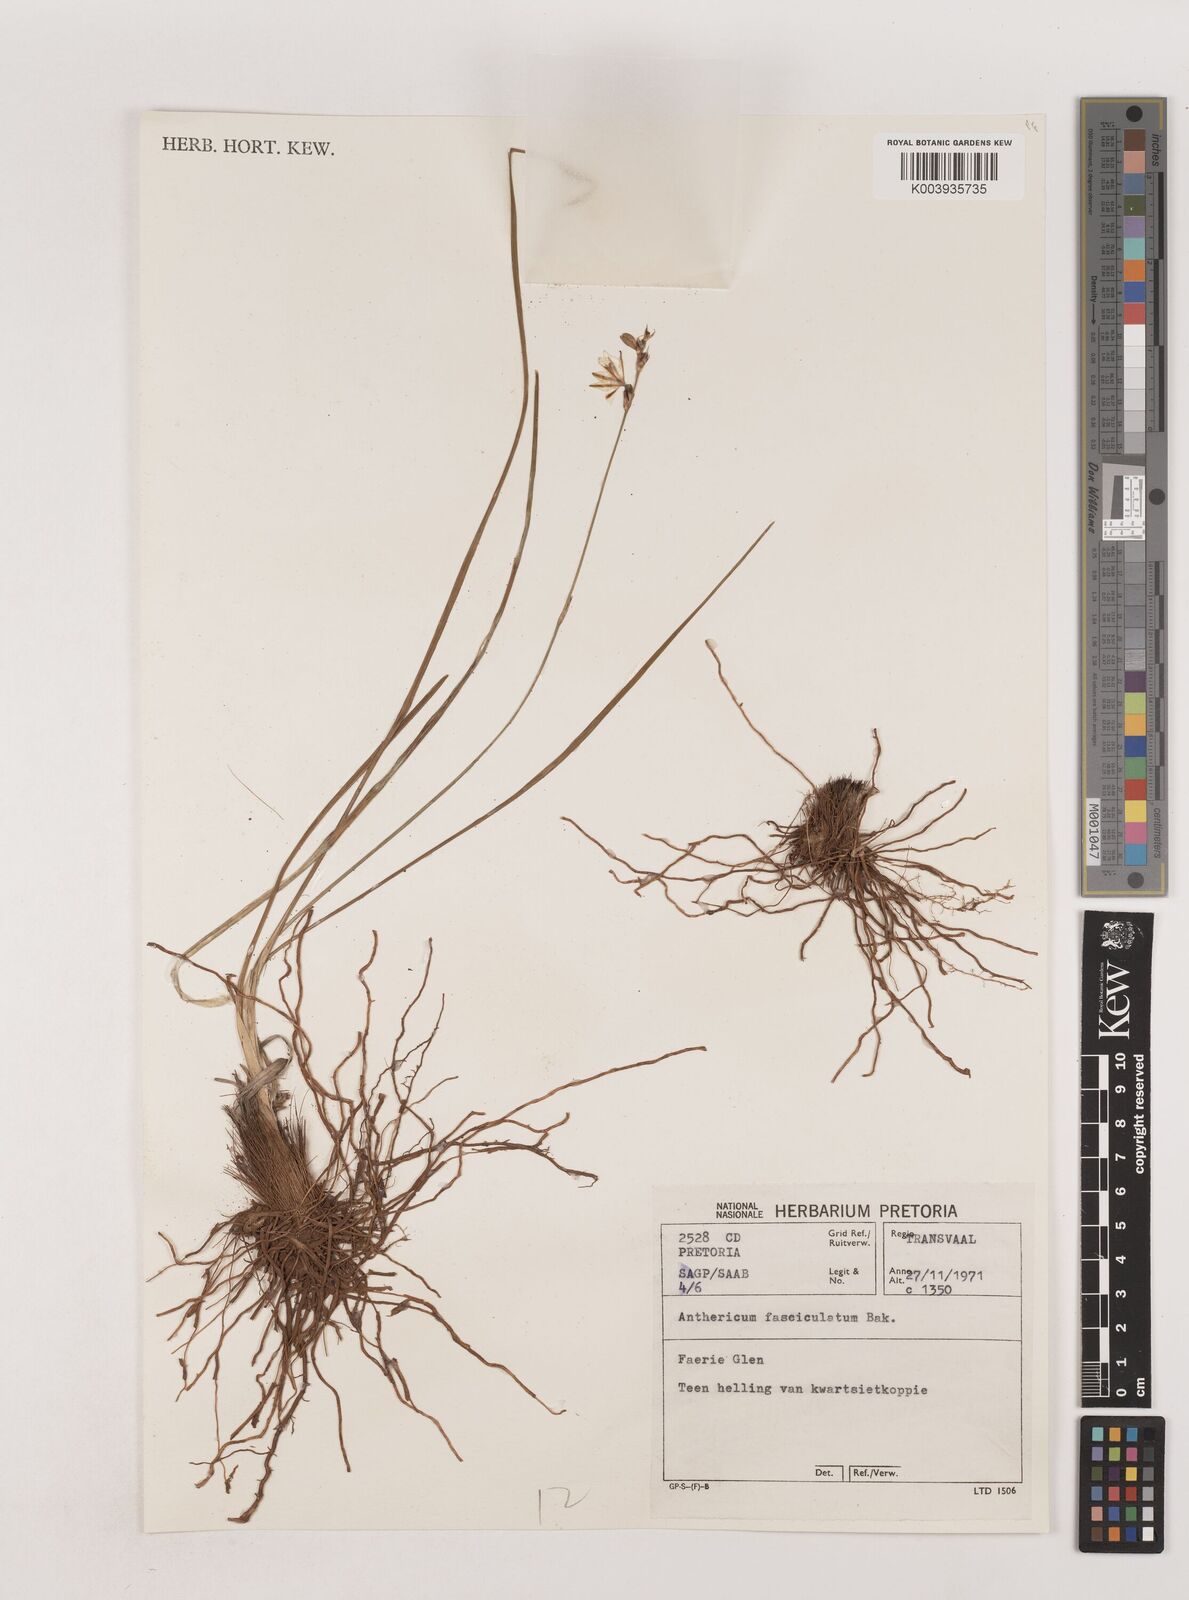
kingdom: Plantae
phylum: Tracheophyta
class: Liliopsida
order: Asparagales
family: Asparagaceae
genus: Chlorophytum
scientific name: Chlorophytum fasciculatum
